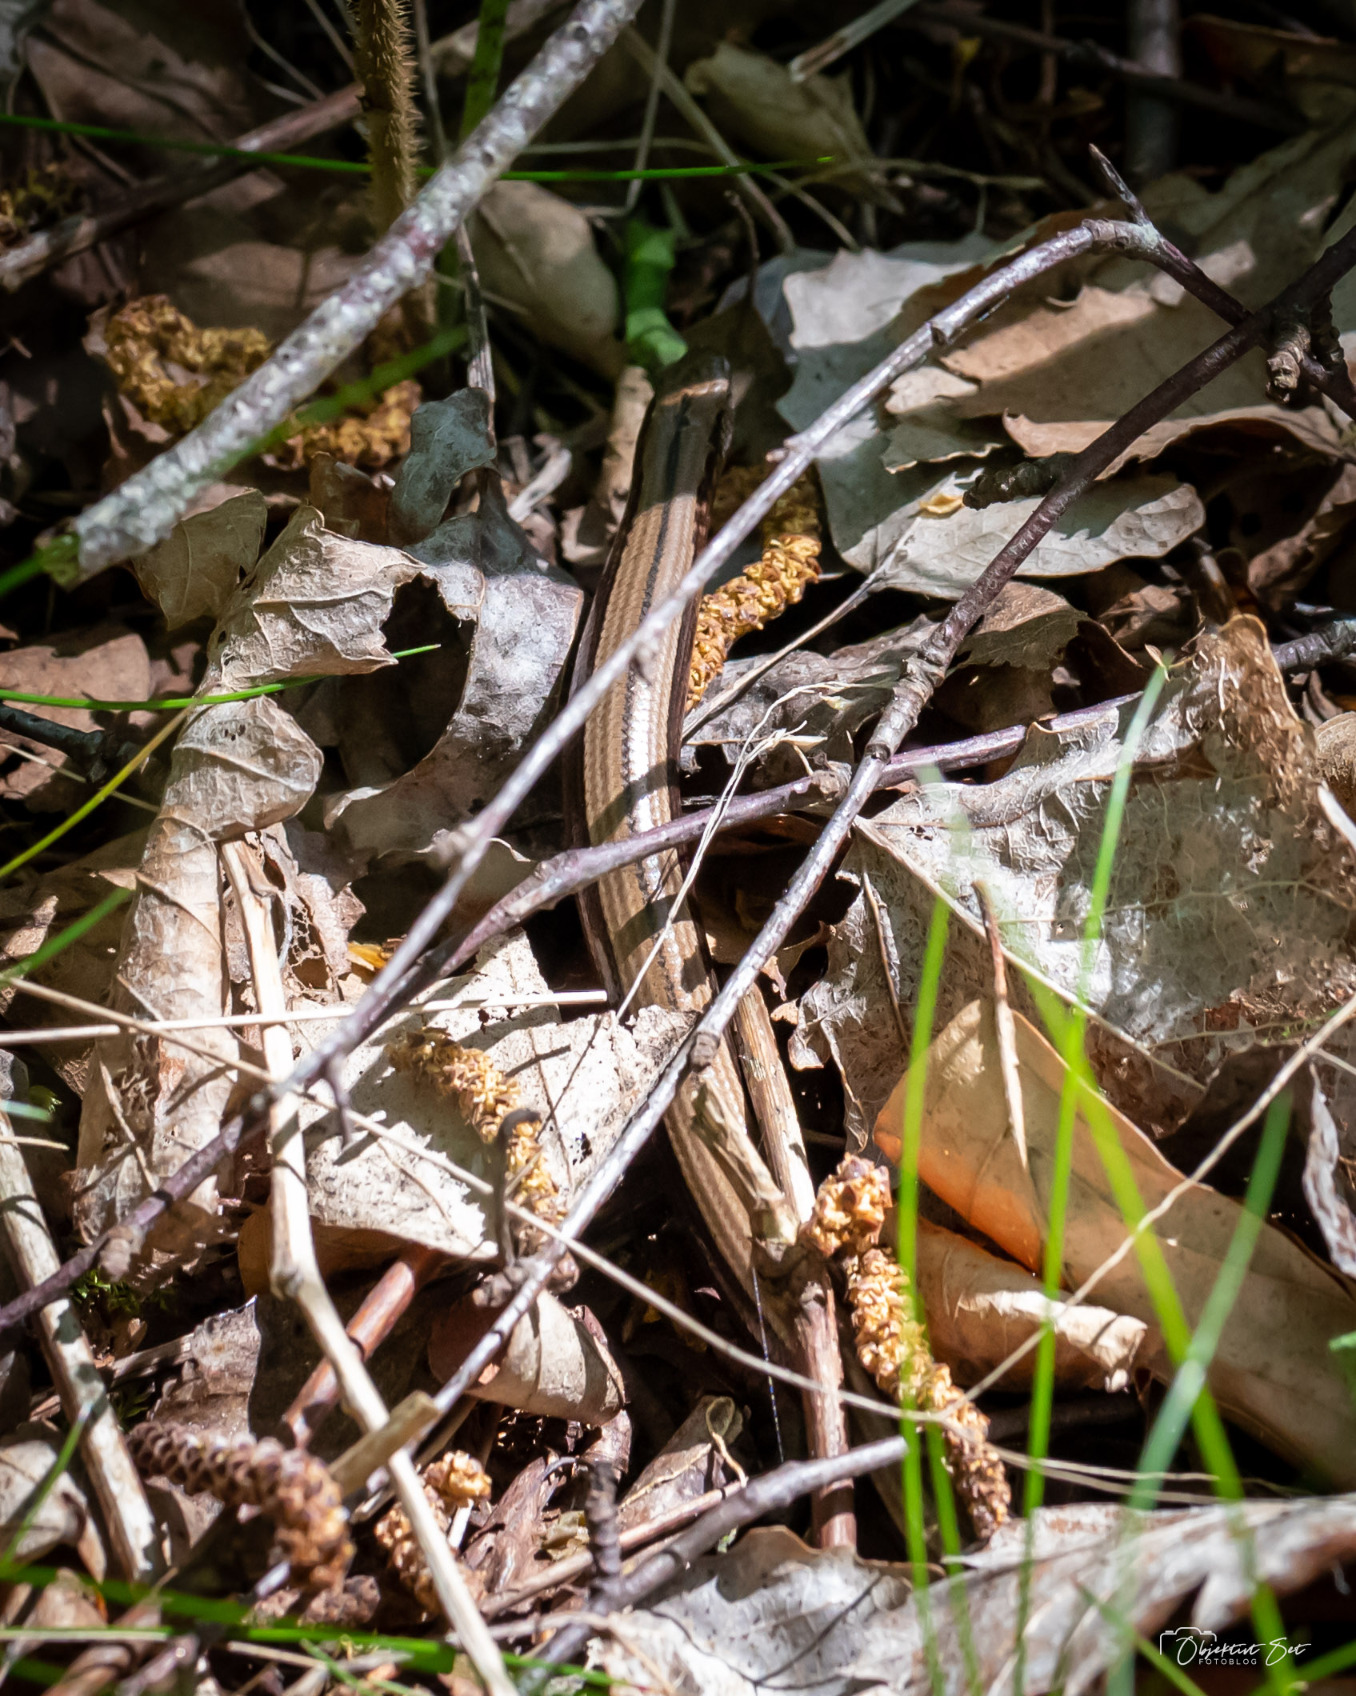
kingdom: Animalia
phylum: Chordata
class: Squamata
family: Anguidae
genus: Anguis
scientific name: Anguis fragilis
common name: Stålorm
